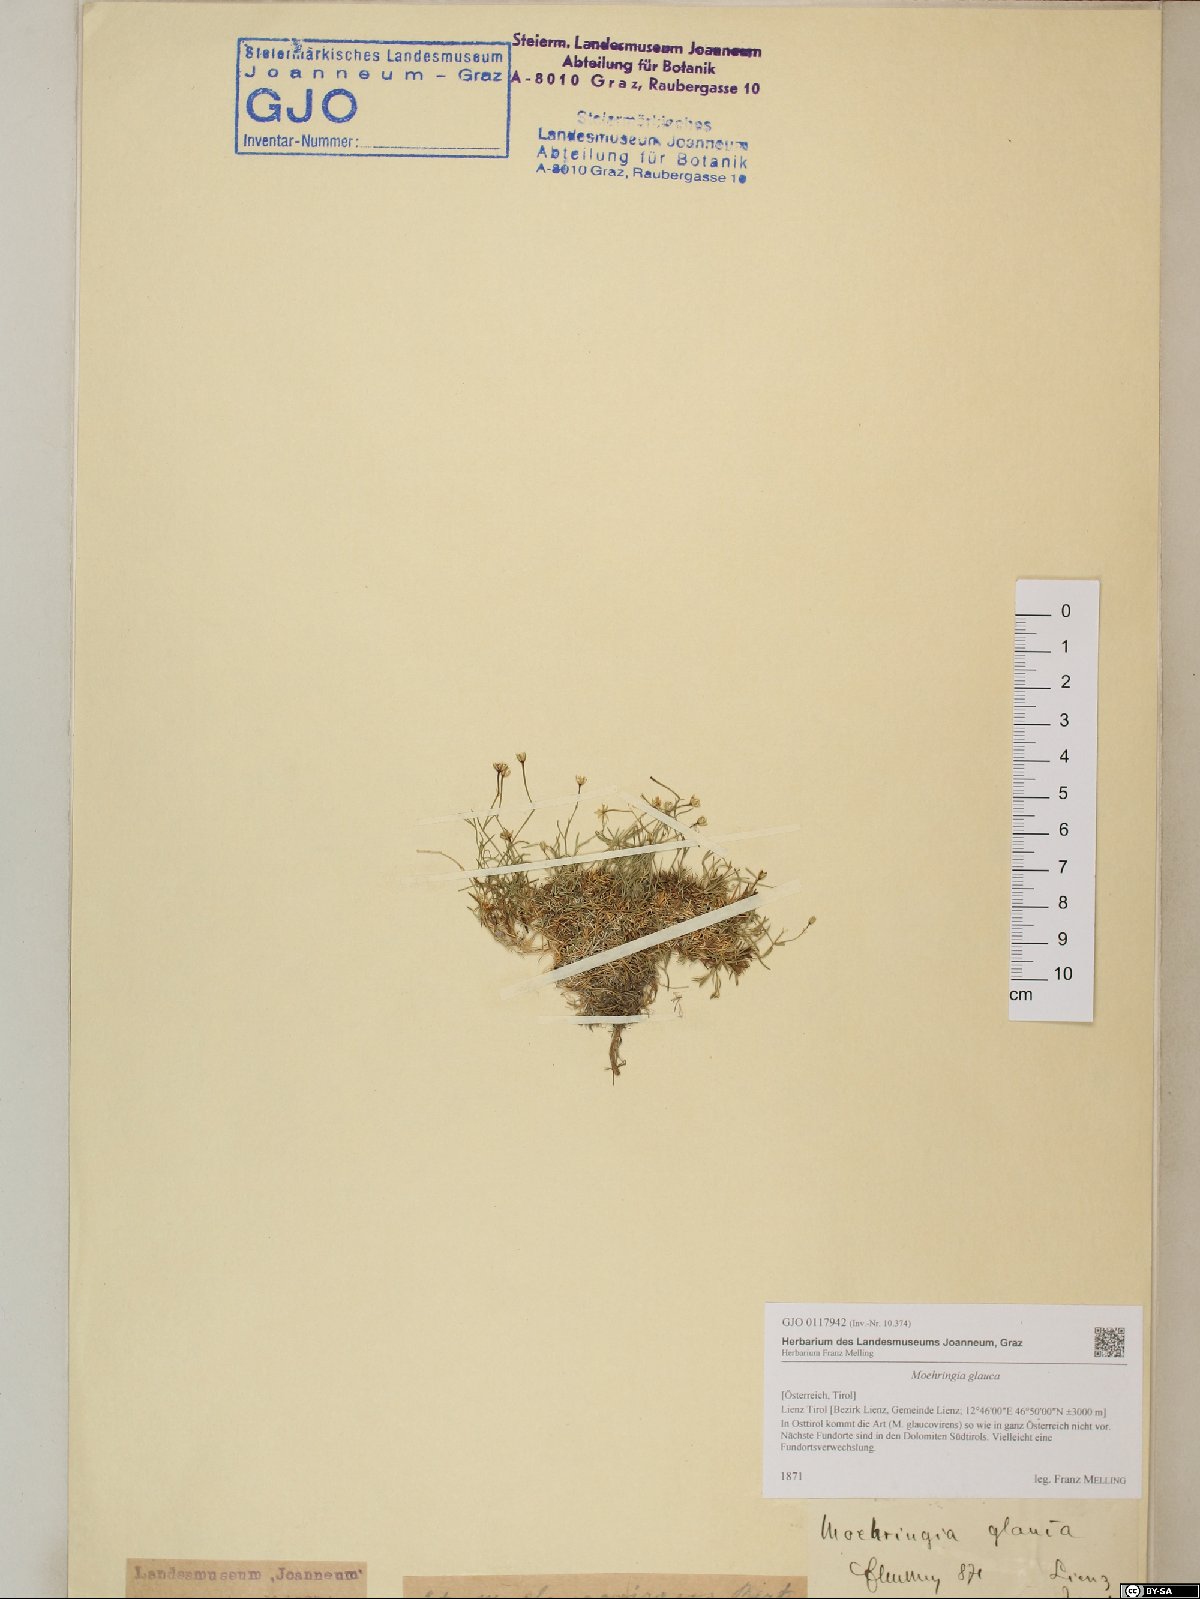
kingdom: Plantae
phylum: Tracheophyta
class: Magnoliopsida
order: Caryophyllales
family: Caryophyllaceae
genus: Moehringia
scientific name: Moehringia glaucovirens
